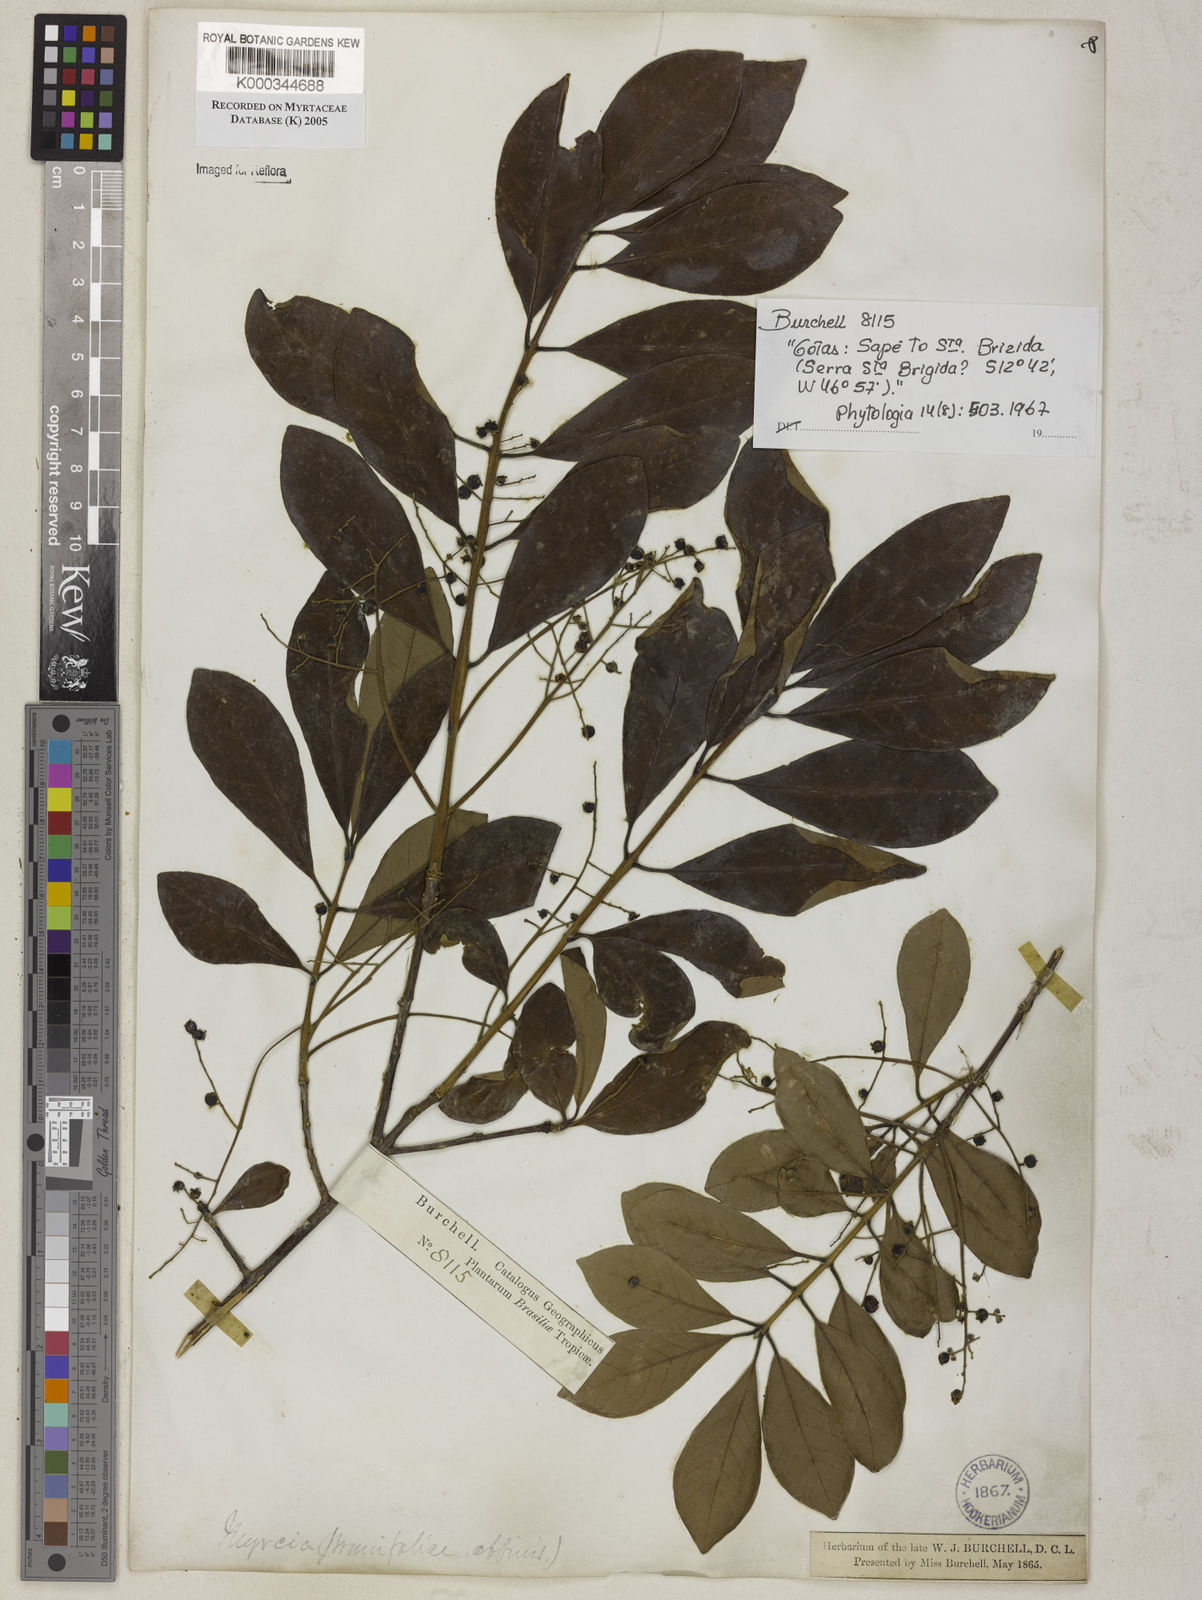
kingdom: Plantae
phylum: Tracheophyta
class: Magnoliopsida
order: Myrtales
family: Myrtaceae
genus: Myrcia
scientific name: Myrcia tomentosa
